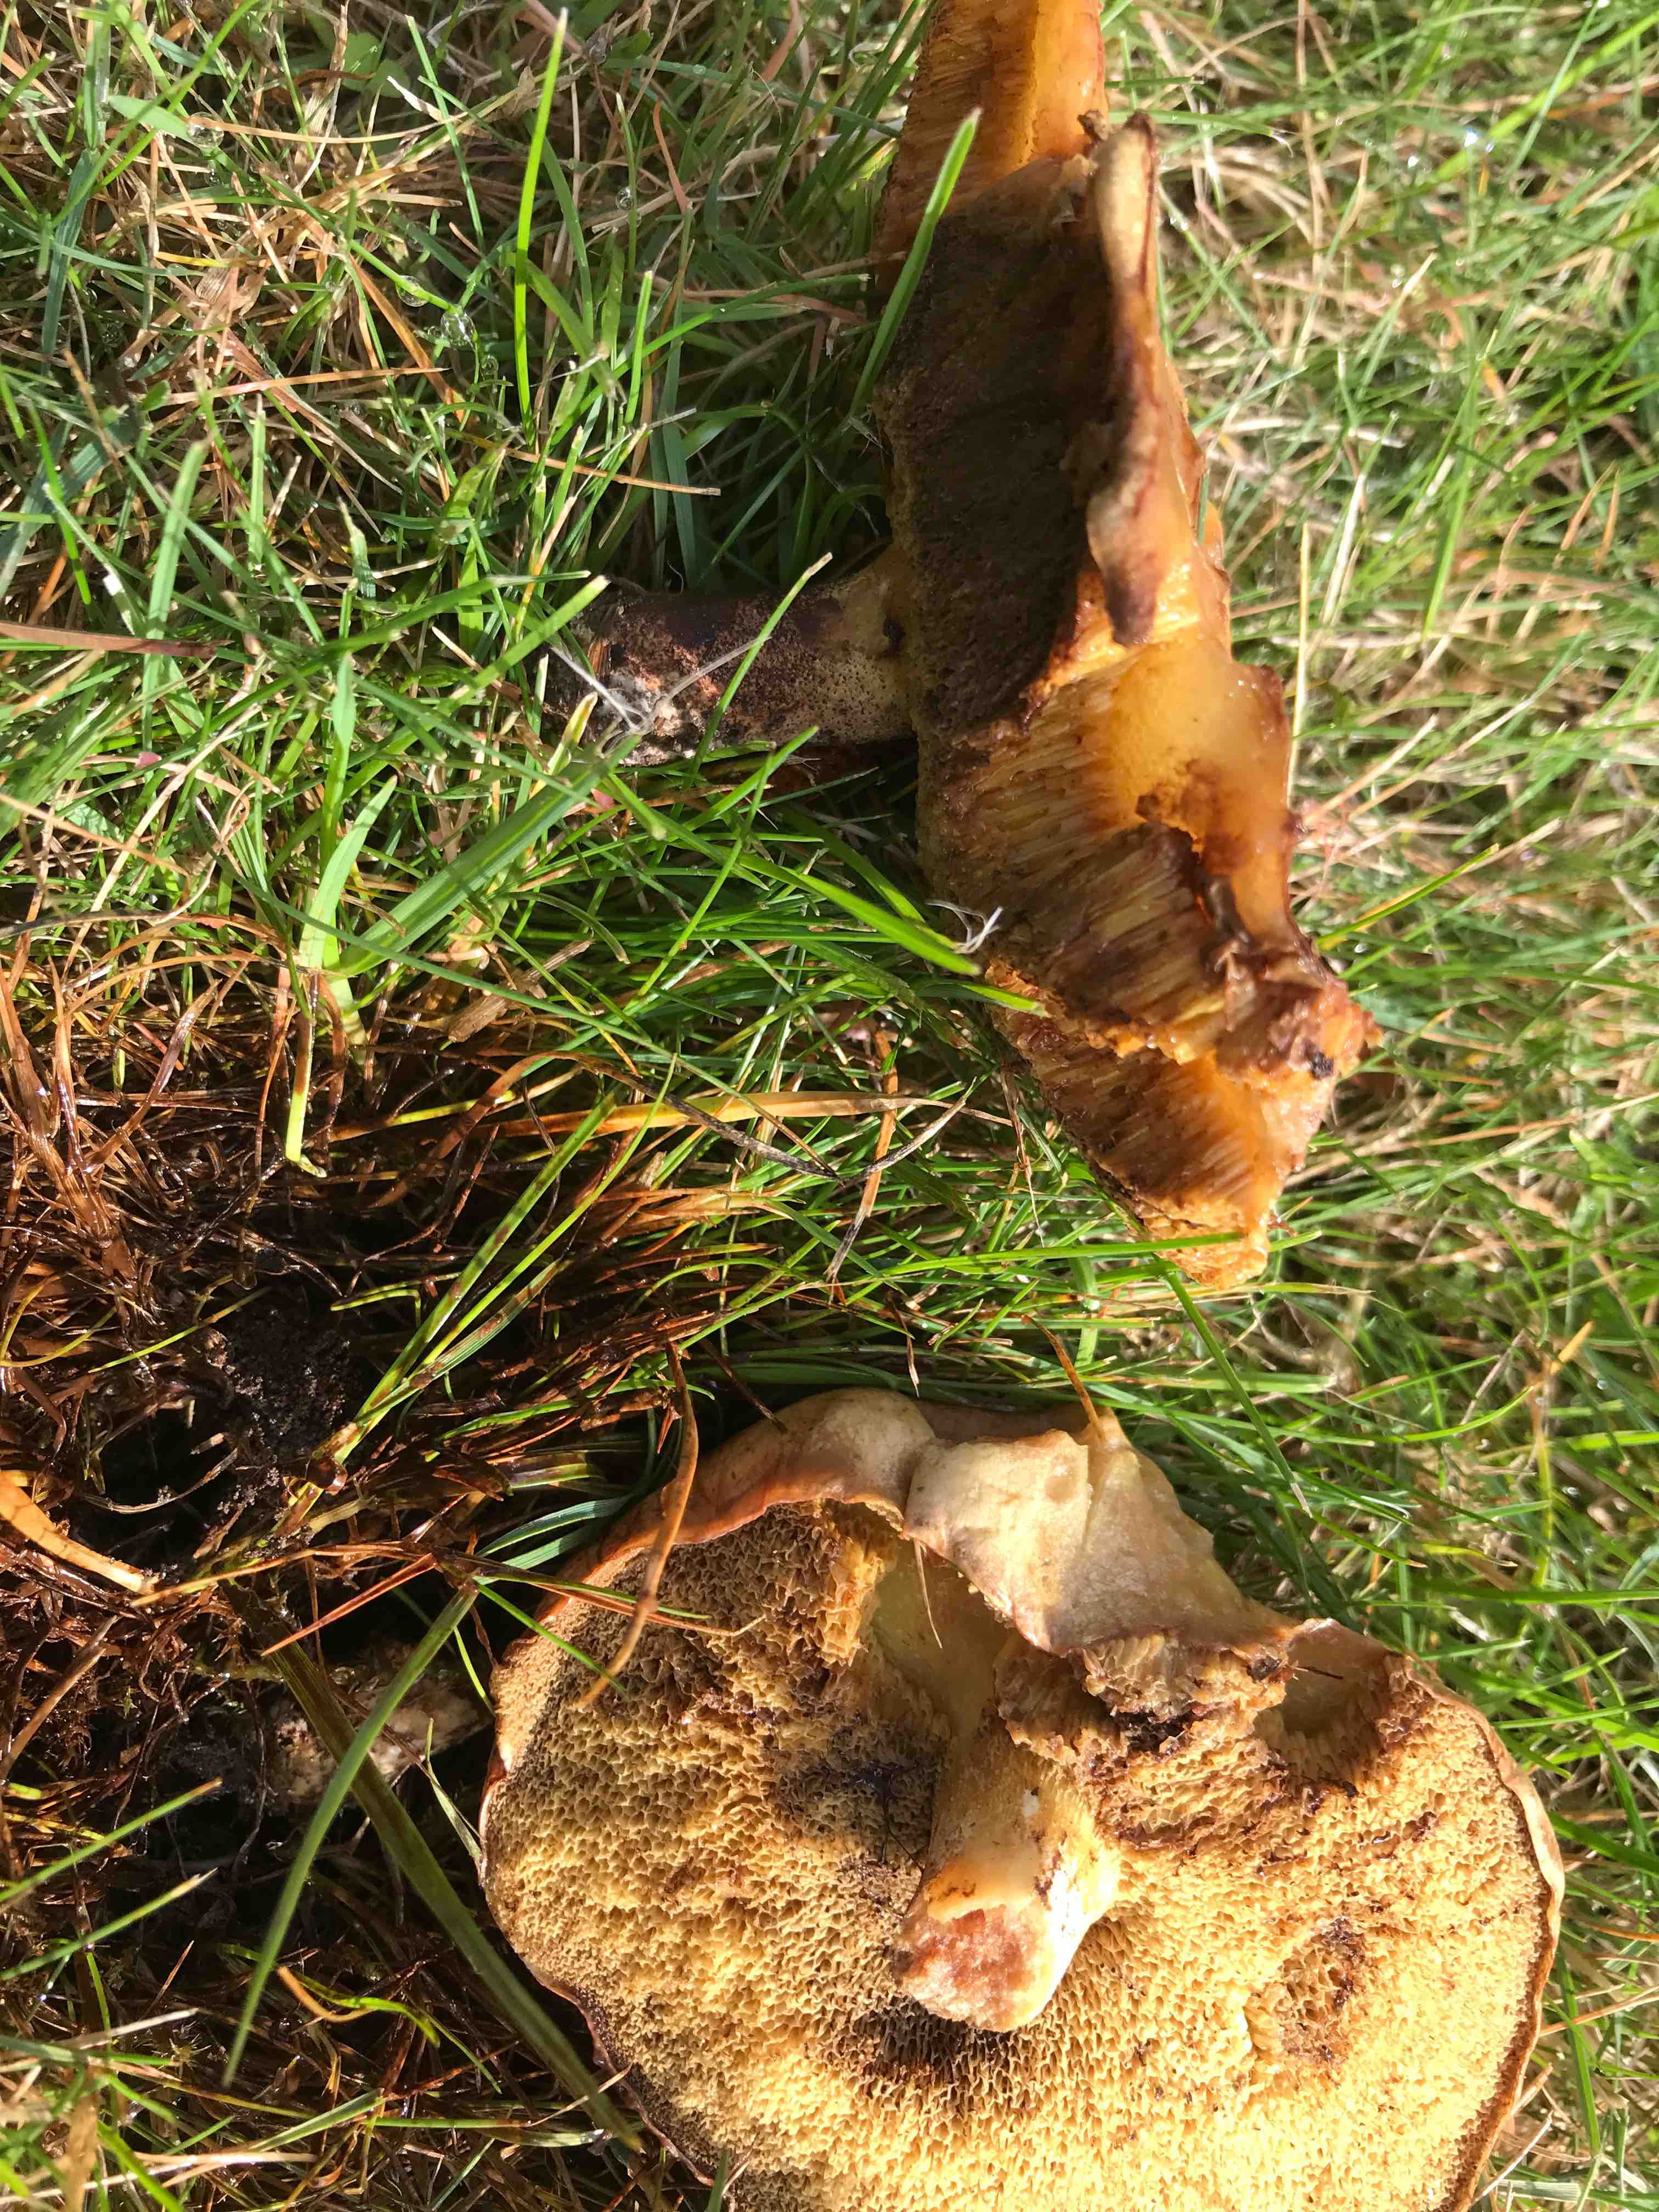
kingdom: Fungi
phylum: Basidiomycota
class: Agaricomycetes
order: Boletales
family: Suillaceae
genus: Suillus
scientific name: Suillus luteus
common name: brungul slimrørhat
